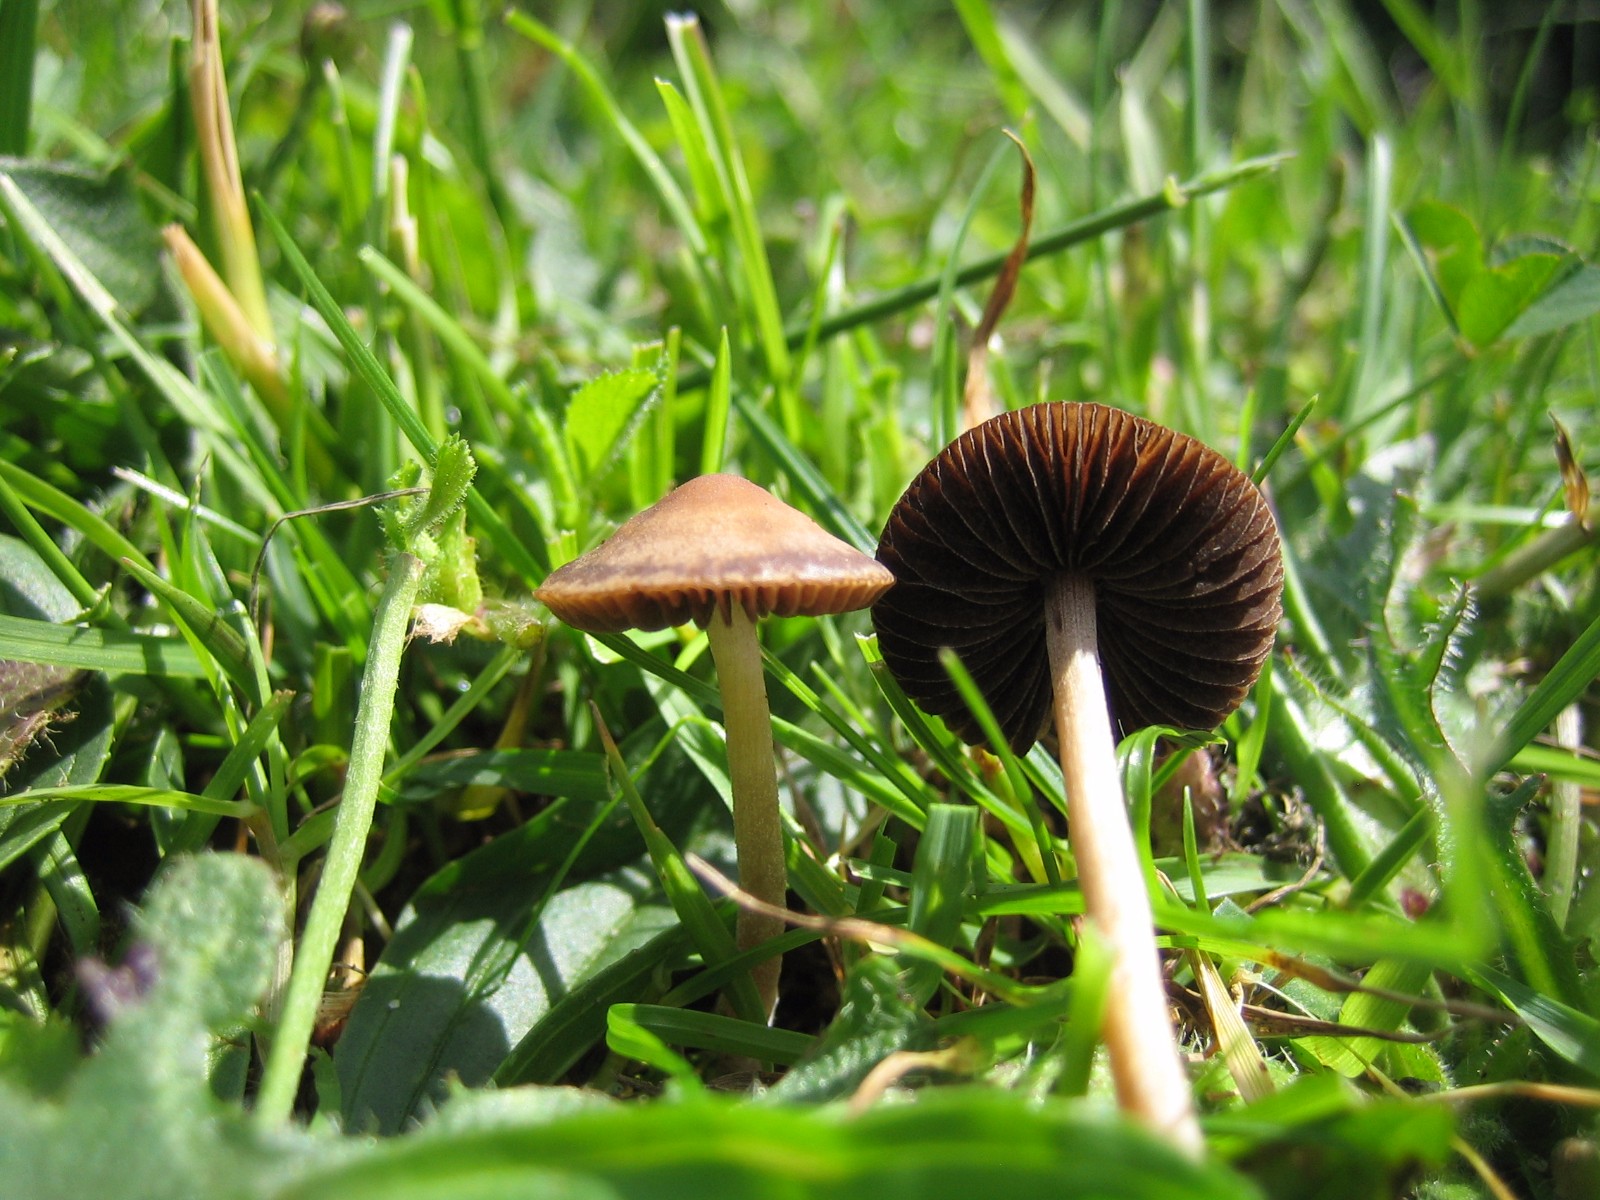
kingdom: Fungi
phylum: Basidiomycota
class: Agaricomycetes
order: Agaricales
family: Bolbitiaceae
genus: Panaeolina
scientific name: Panaeolina foenisecii
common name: høslætsvamp
